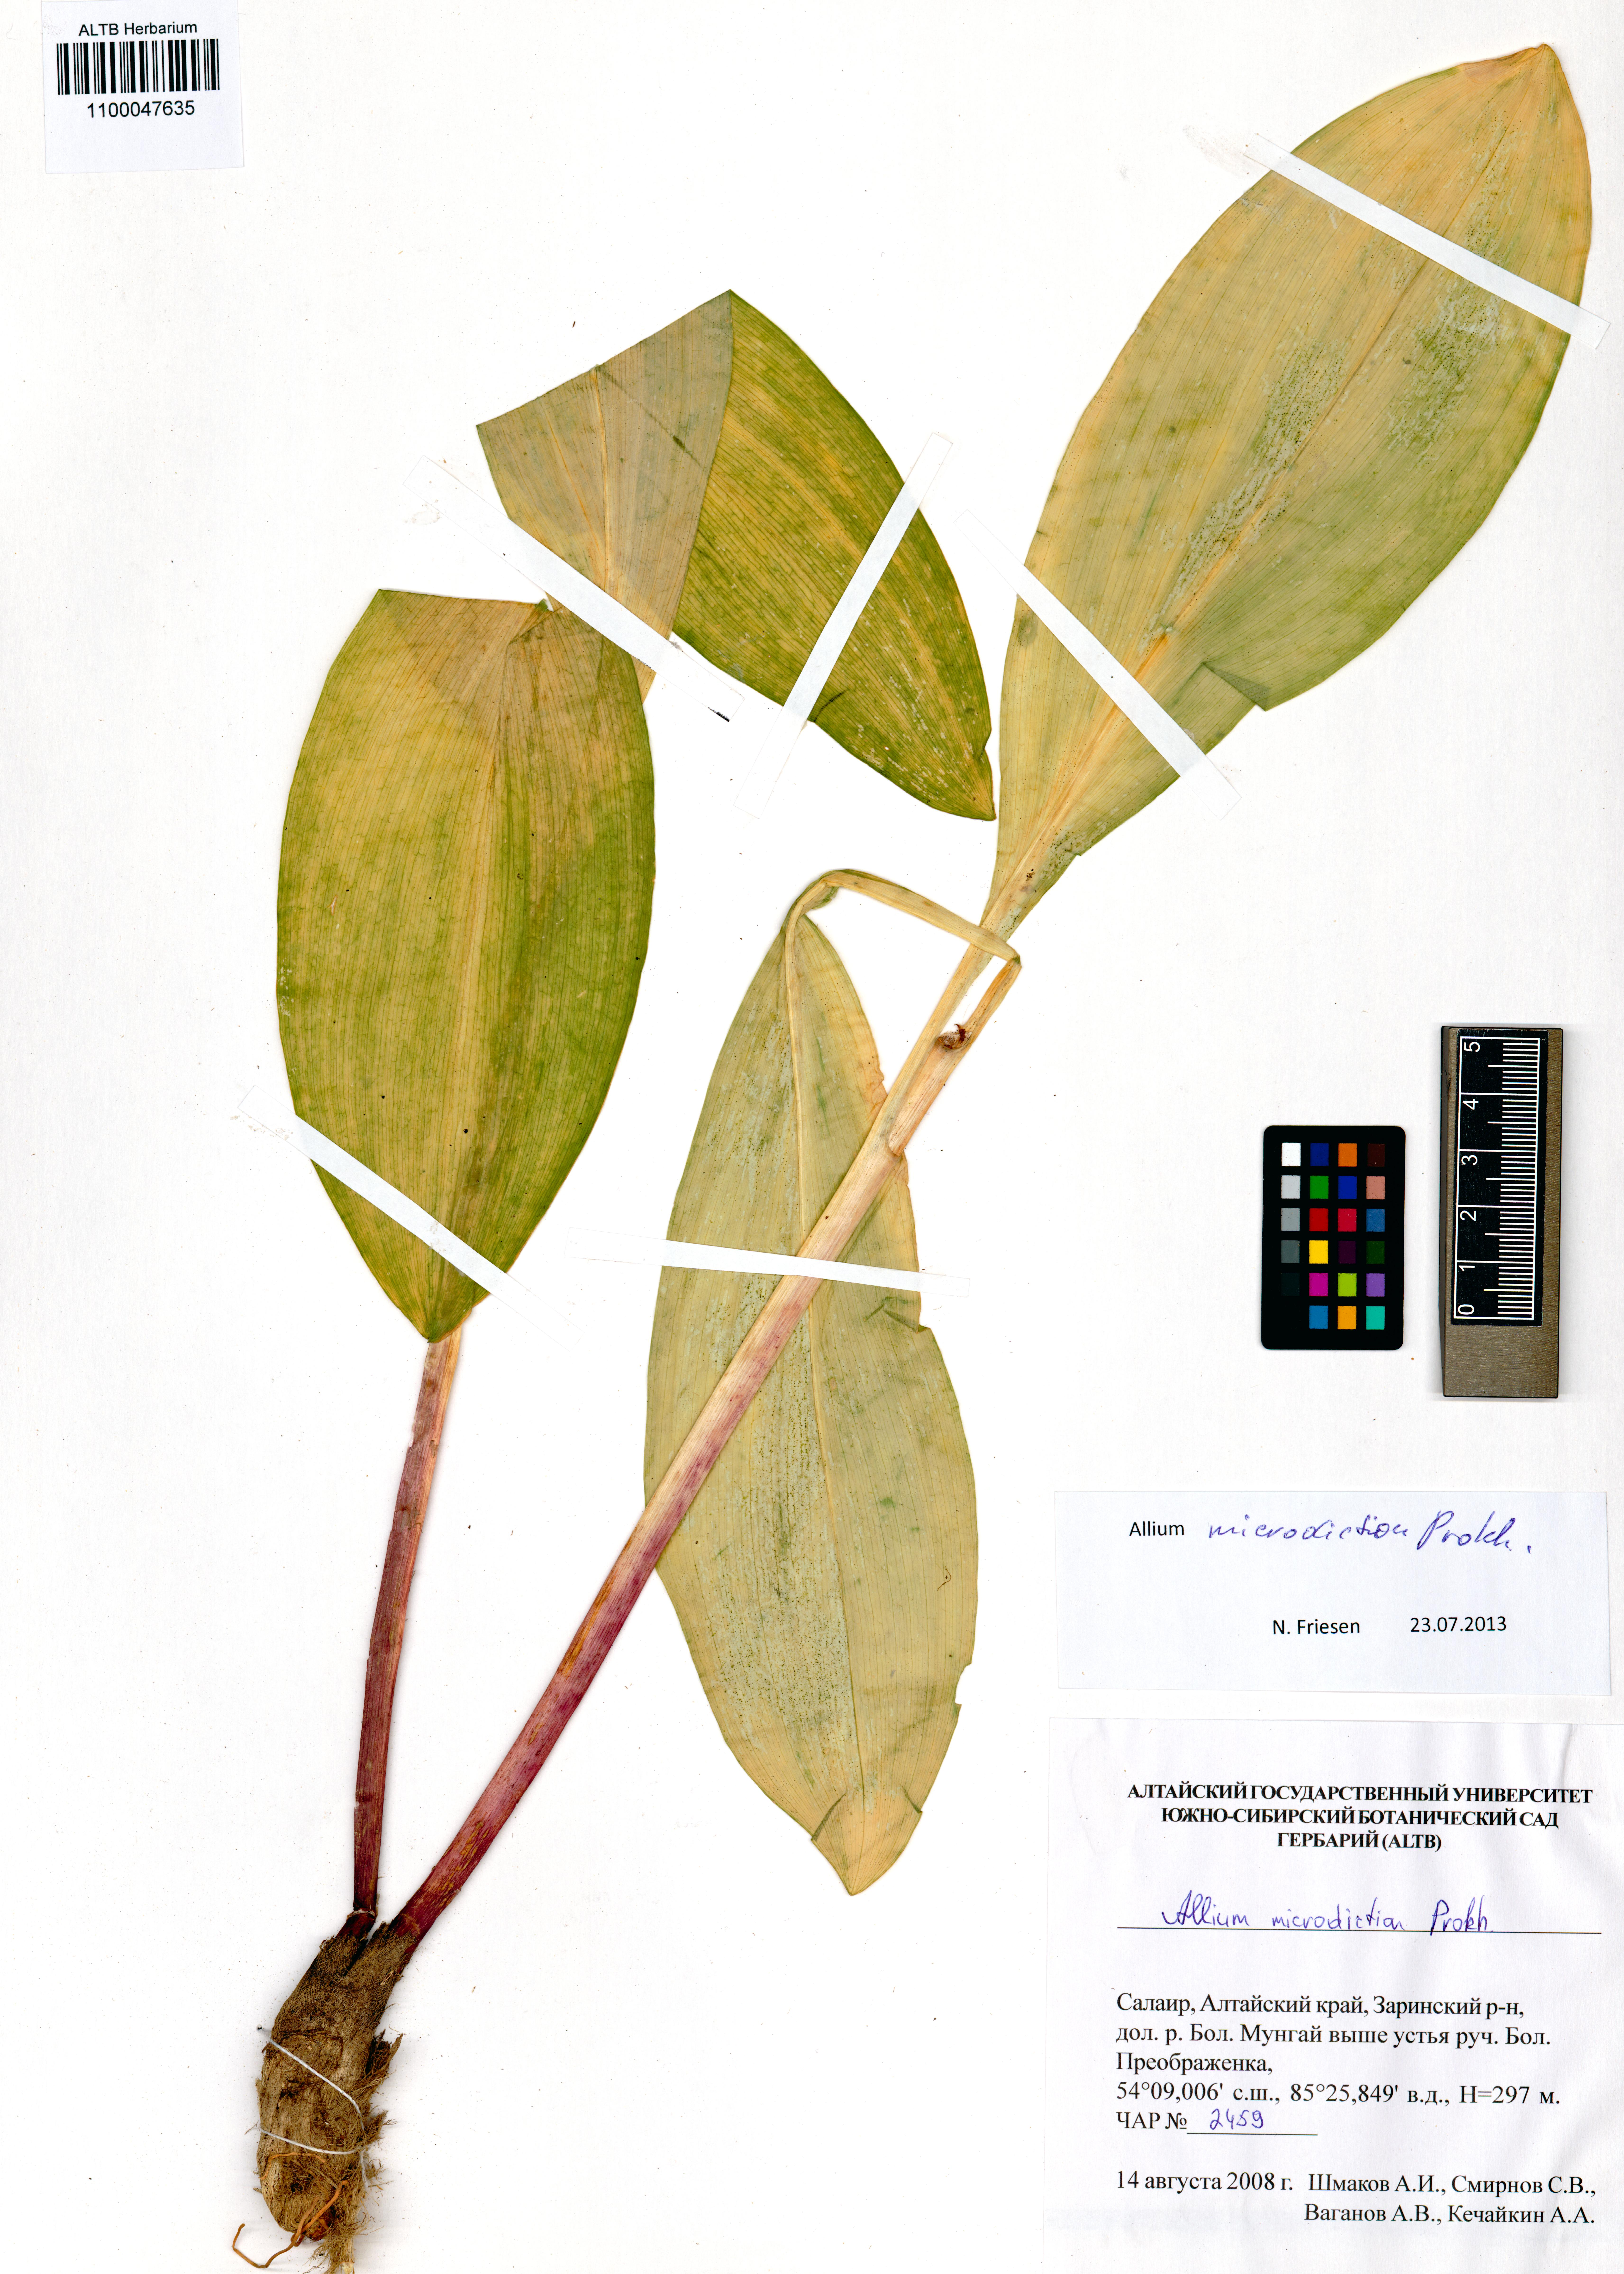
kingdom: Plantae
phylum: Tracheophyta
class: Liliopsida
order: Asparagales
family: Amaryllidaceae
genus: Allium
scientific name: Allium microdictyon
